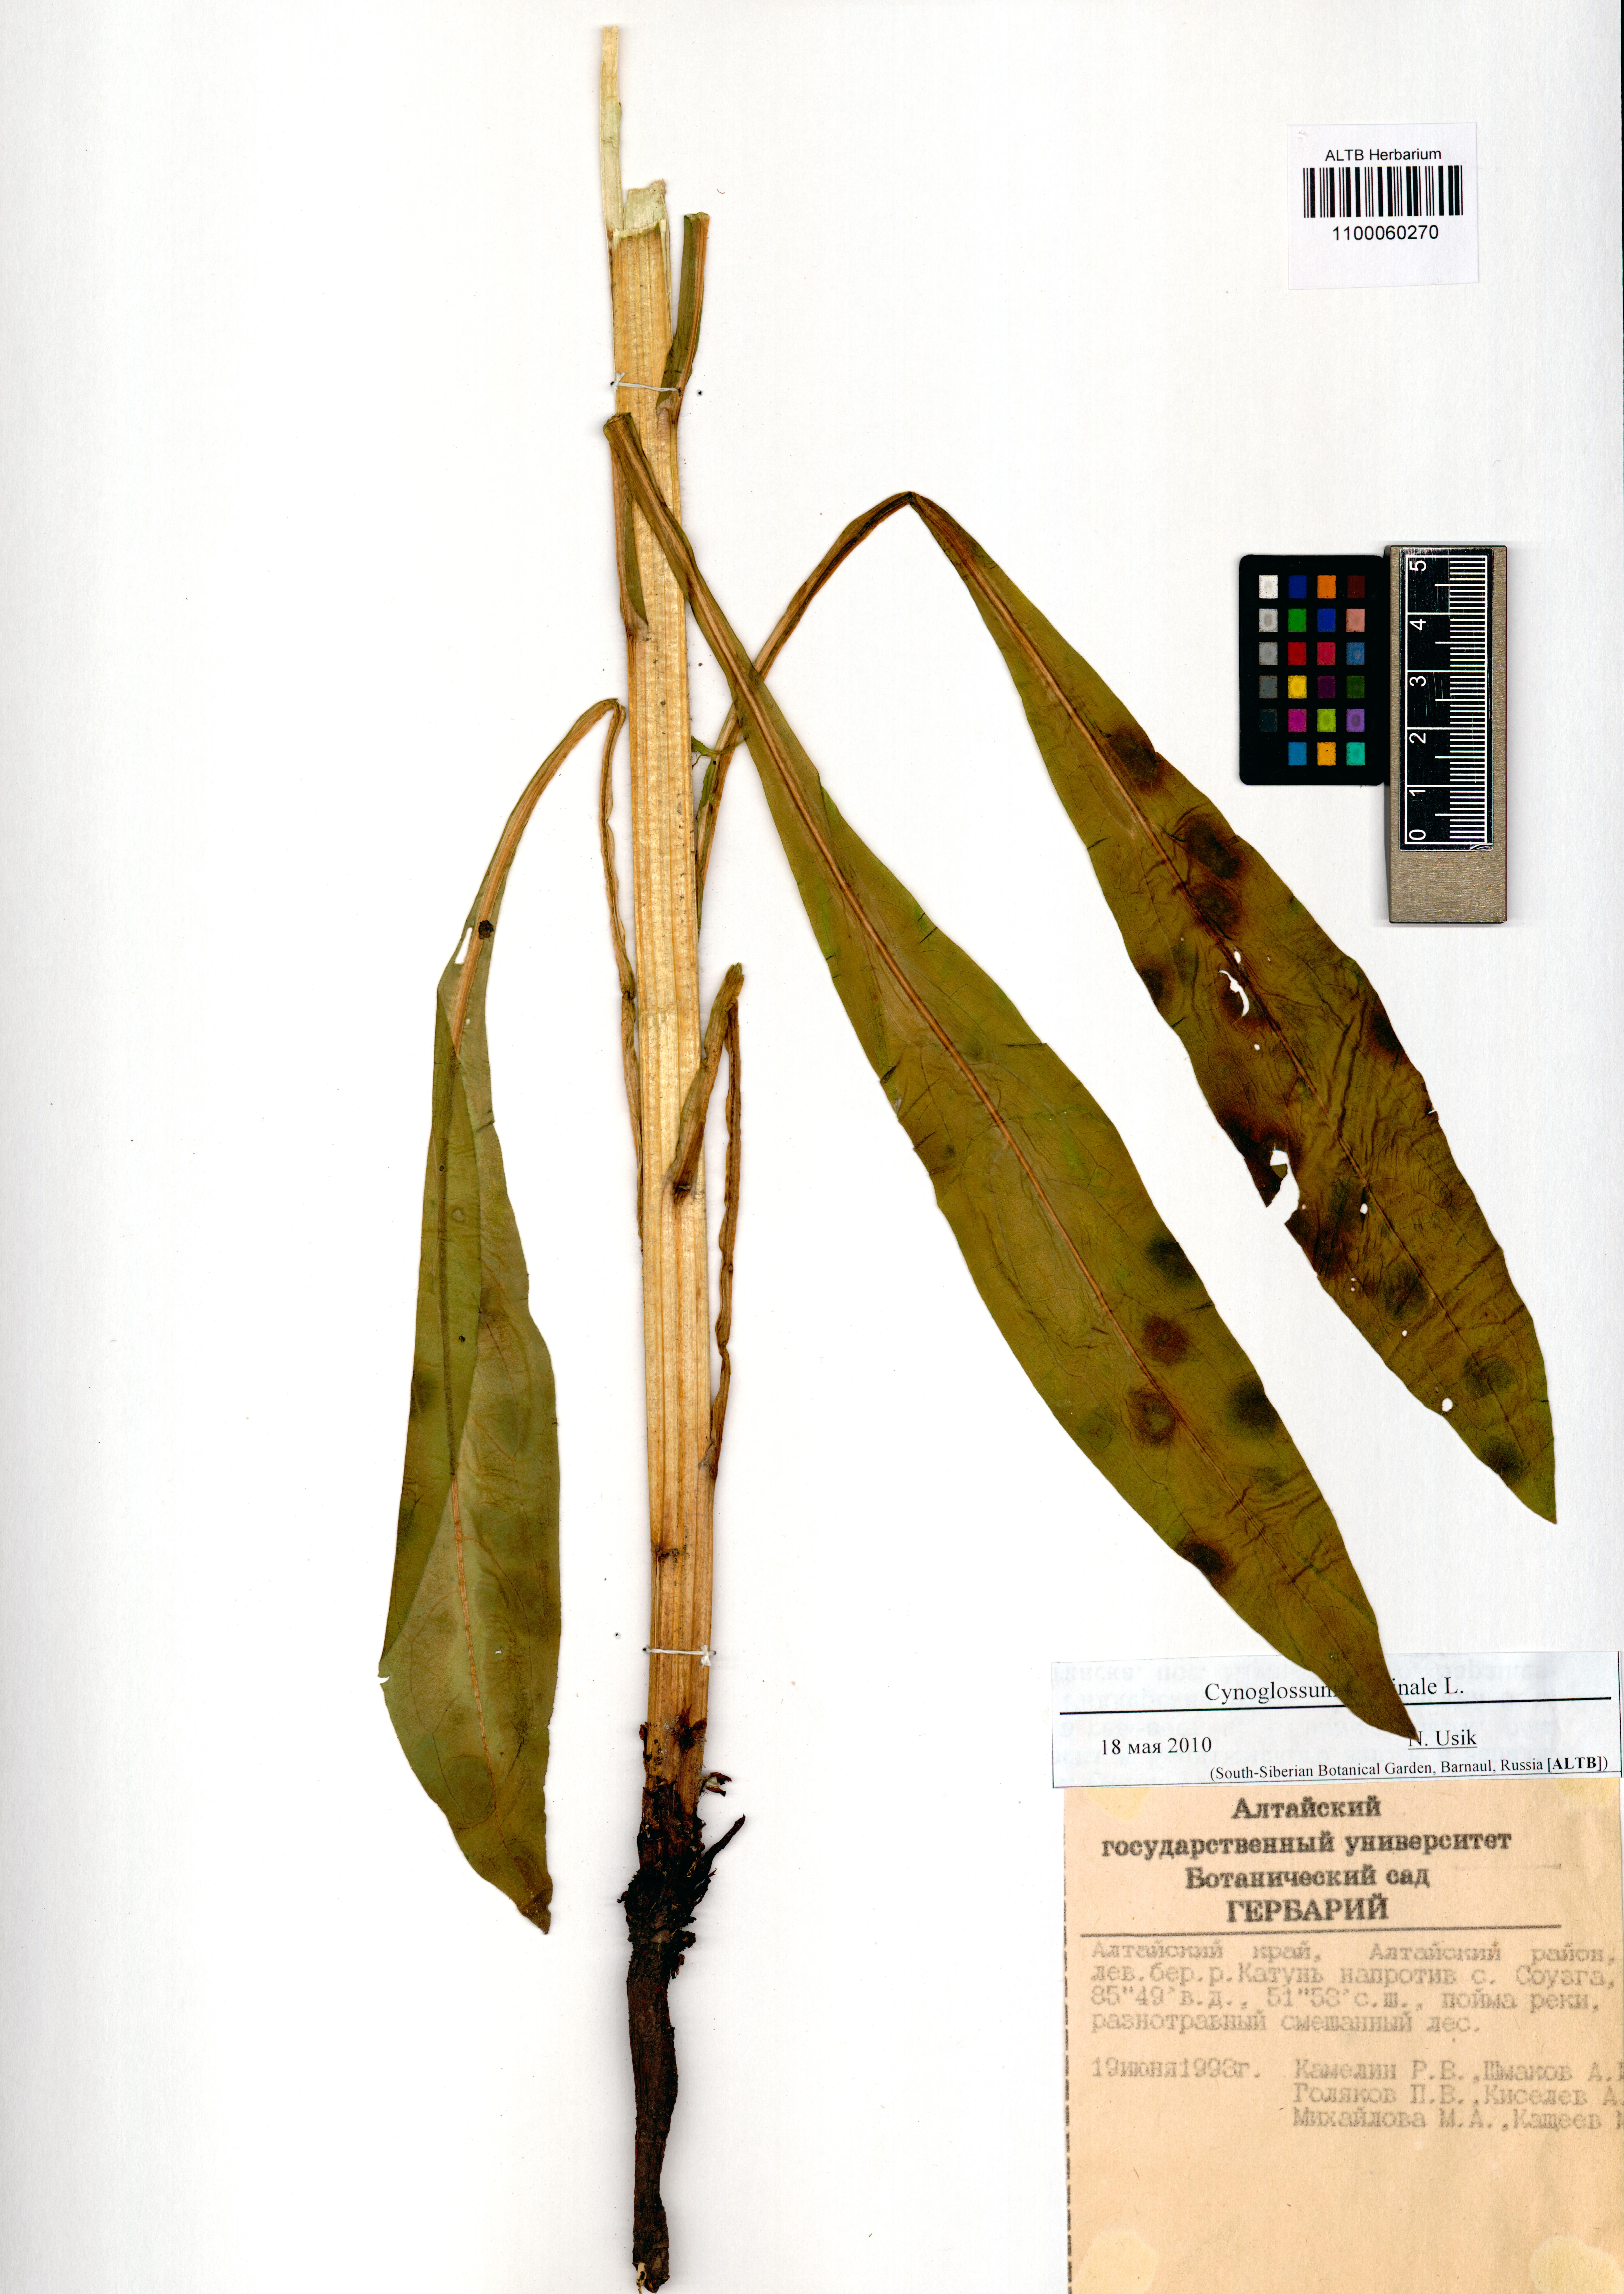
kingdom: Plantae
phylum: Tracheophyta
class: Magnoliopsida
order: Boraginales
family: Boraginaceae
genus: Cynoglossum
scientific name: Cynoglossum officinale
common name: Hound's-tongue
